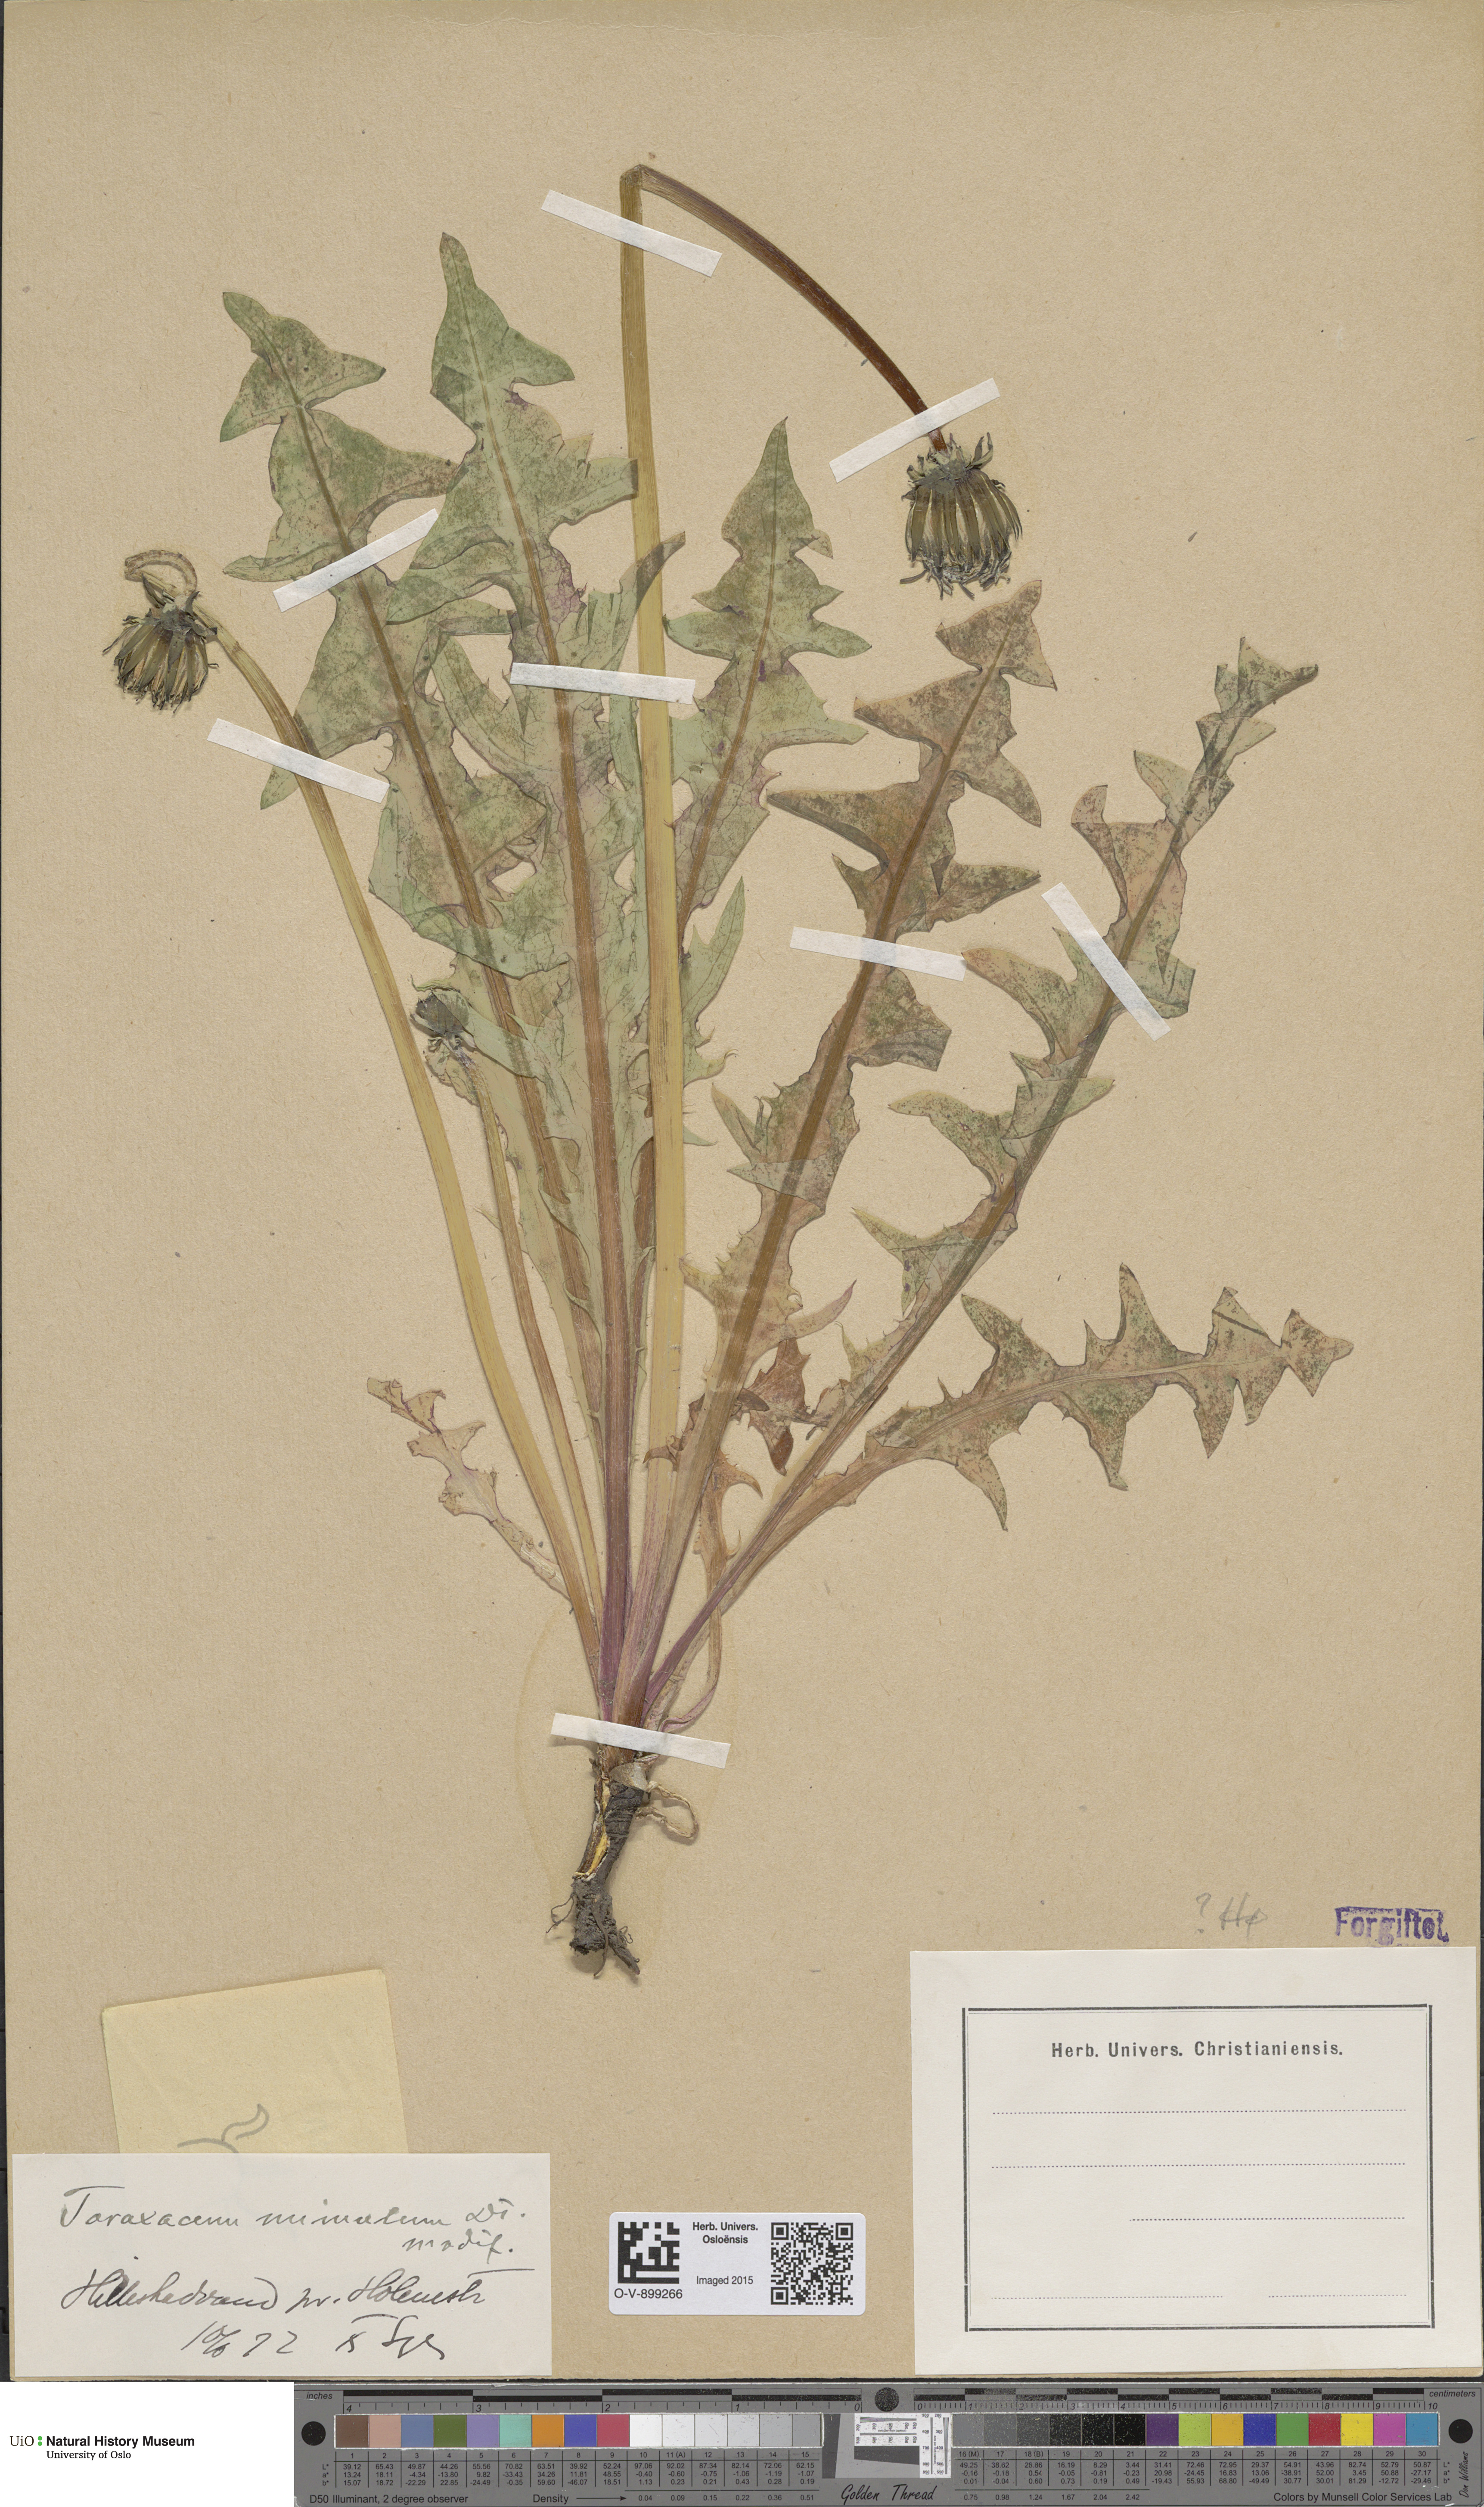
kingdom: Plantae
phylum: Tracheophyta
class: Magnoliopsida
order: Asterales
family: Asteraceae
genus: Taraxacum
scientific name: Taraxacum mimulum
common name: Sharp-lobed dandelion
